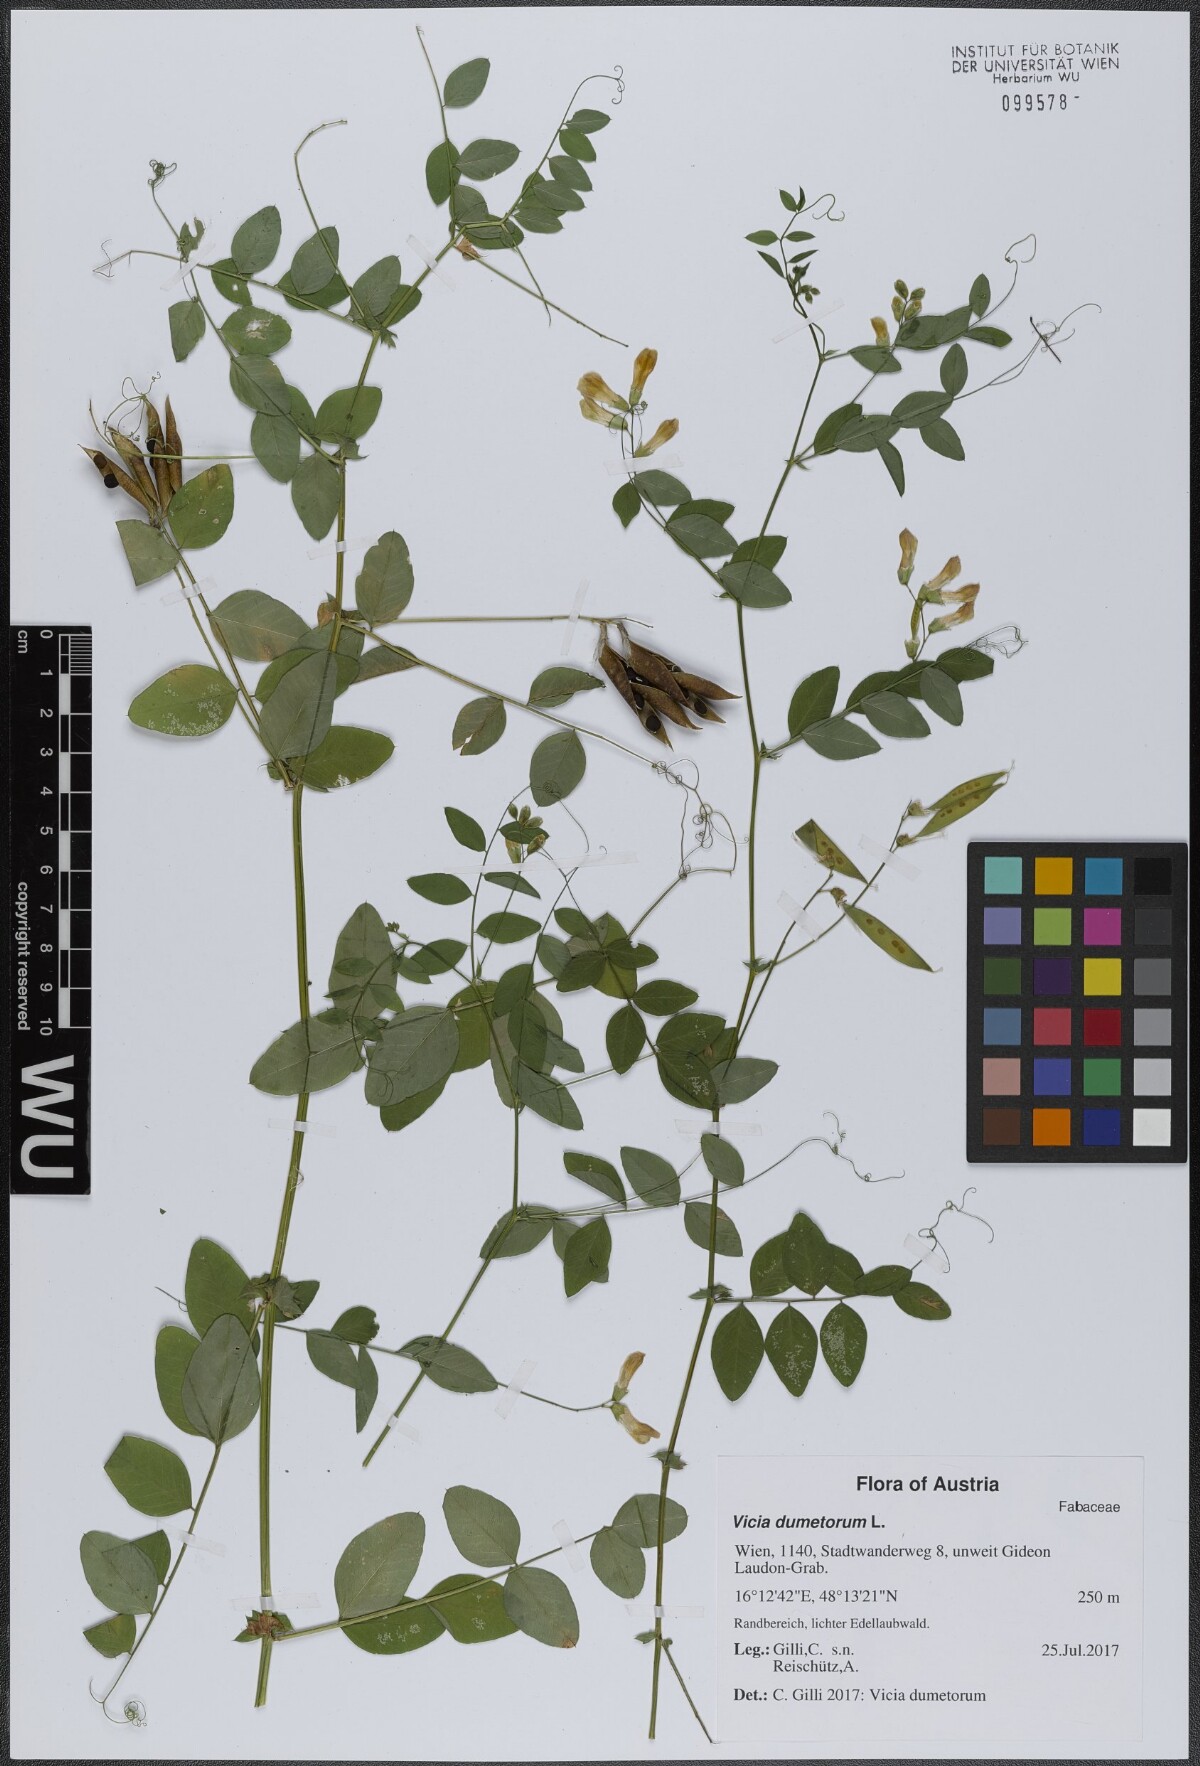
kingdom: Plantae
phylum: Tracheophyta
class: Magnoliopsida
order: Fabales
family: Fabaceae
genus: Vicia
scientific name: Vicia dumetorum
